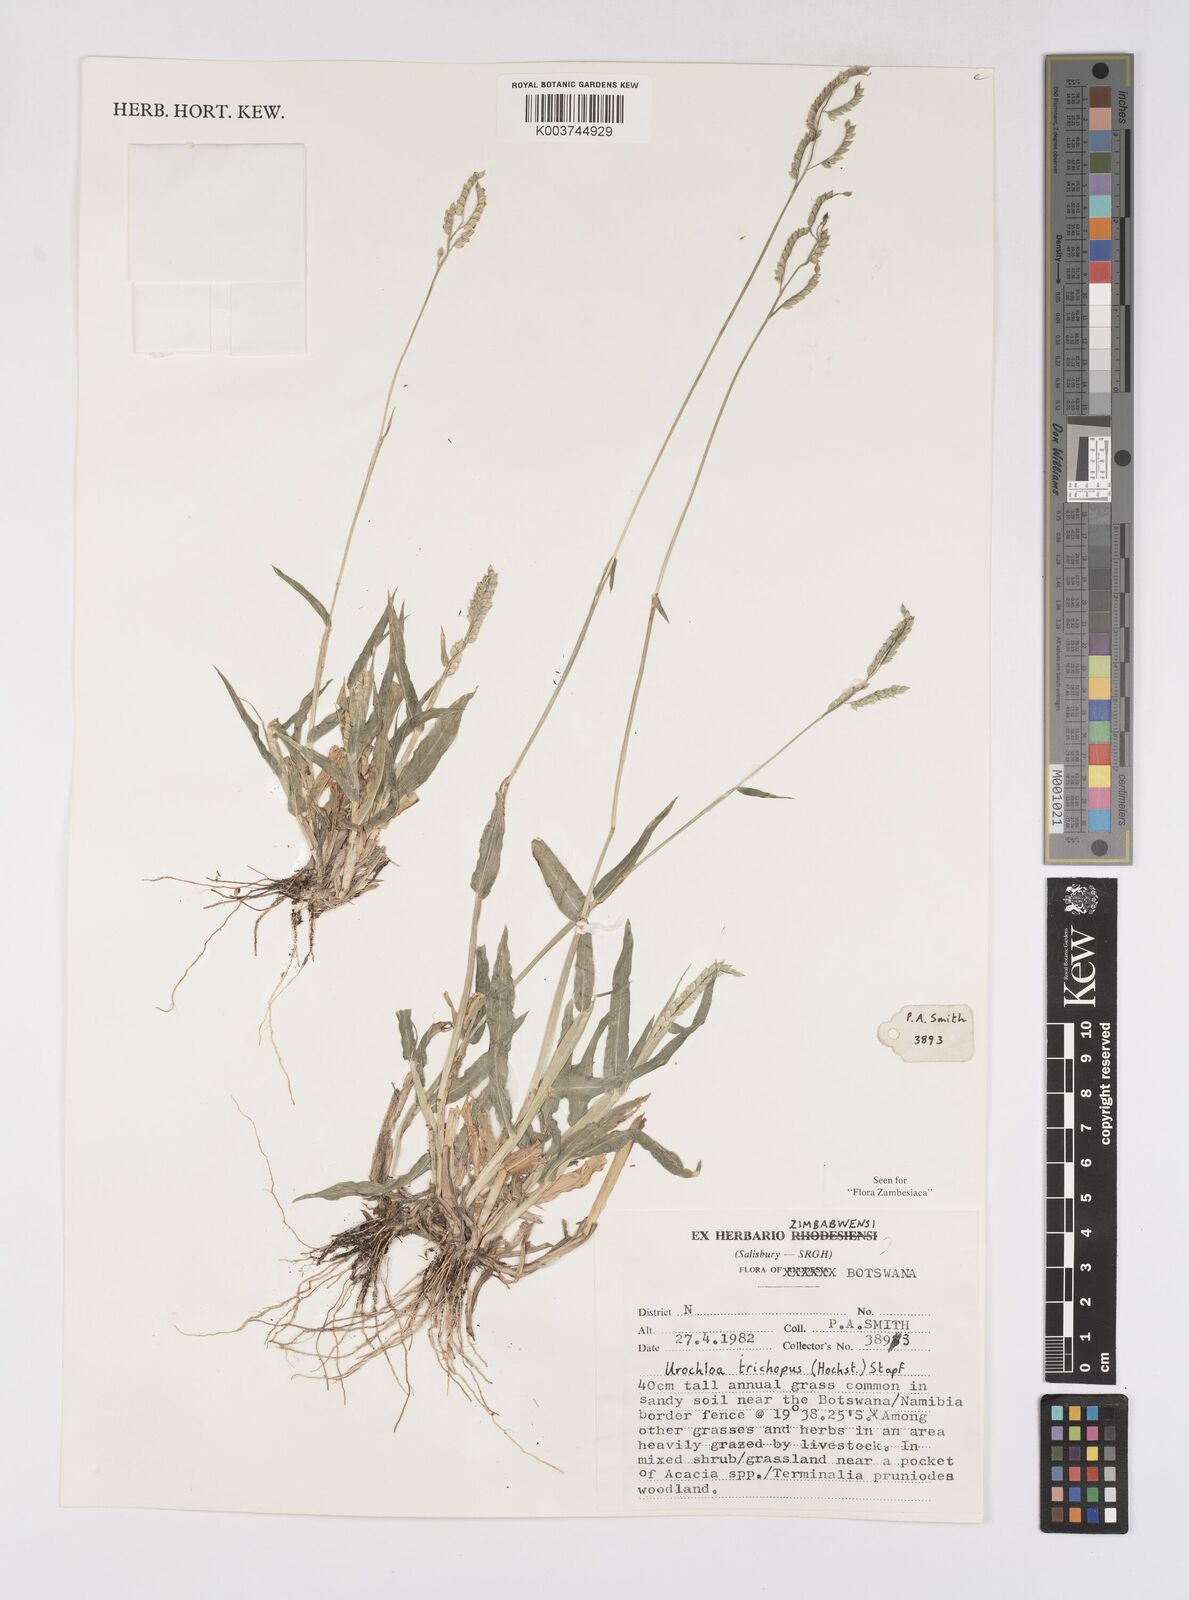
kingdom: Plantae
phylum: Tracheophyta
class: Liliopsida
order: Poales
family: Poaceae
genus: Urochloa
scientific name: Urochloa trichopus
